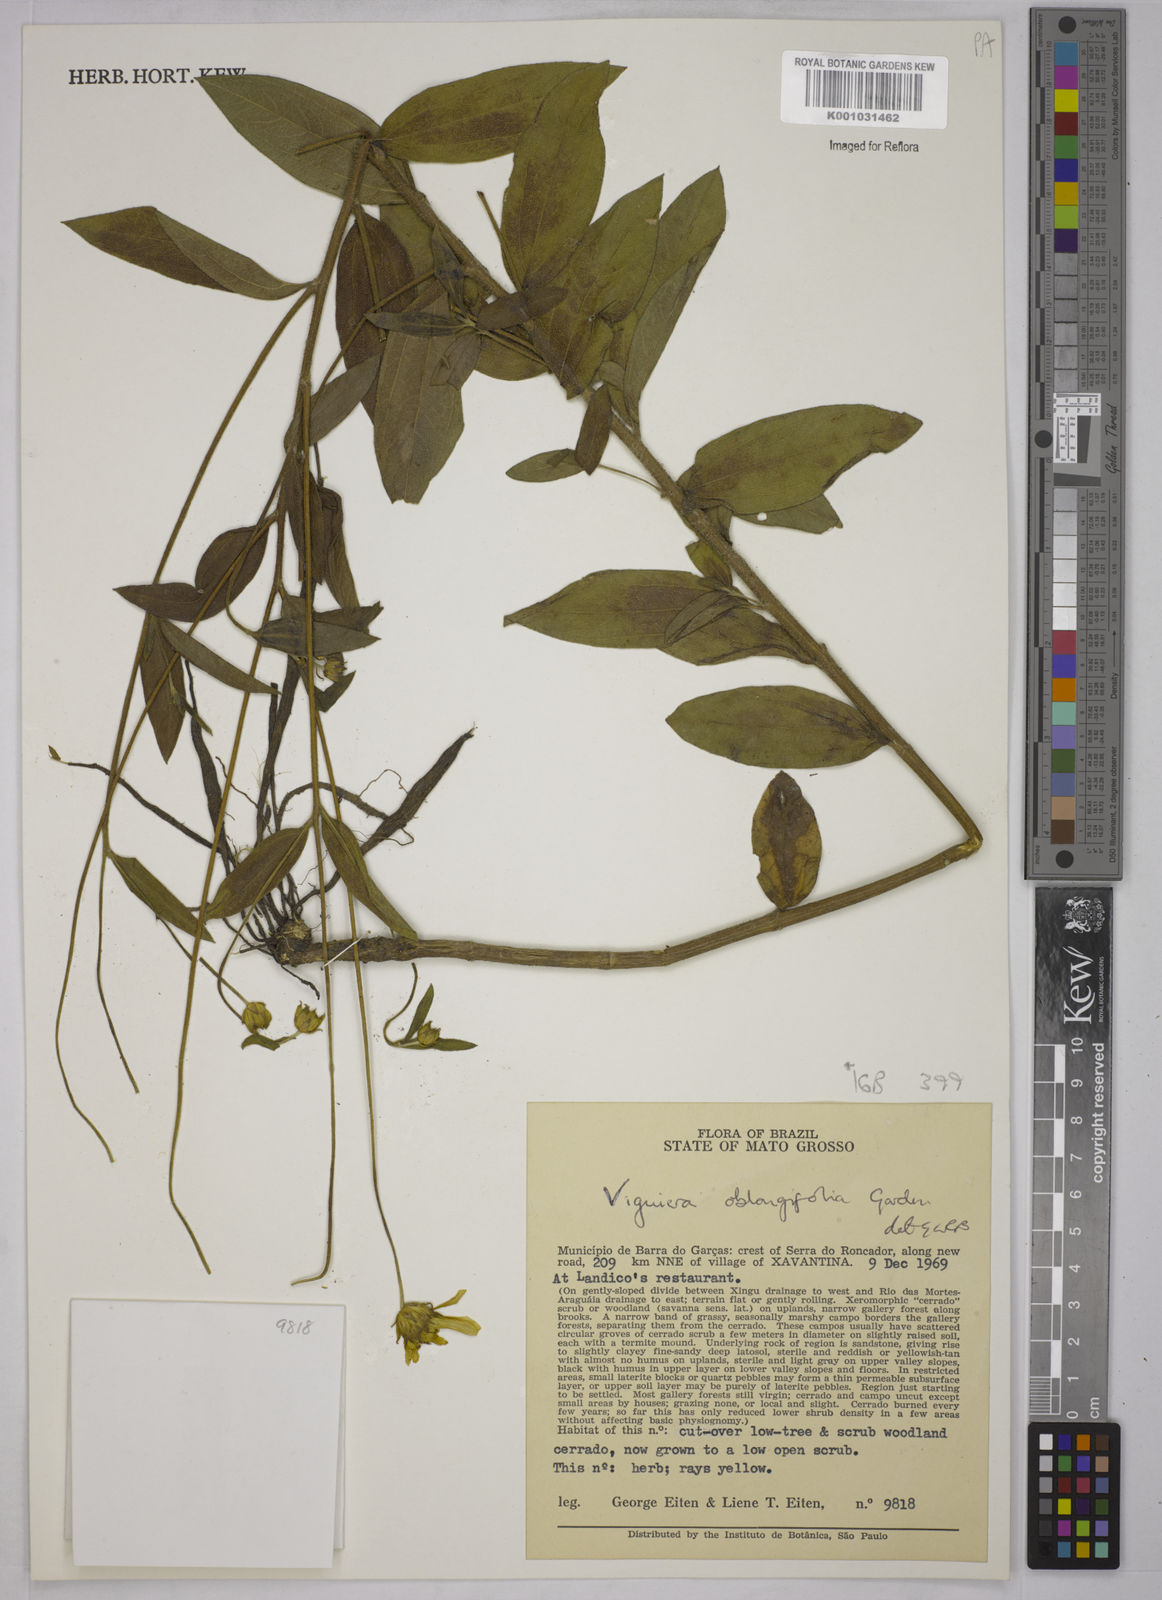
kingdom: Plantae
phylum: Tracheophyta
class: Magnoliopsida
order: Asterales
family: Asteraceae
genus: Aldama
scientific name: Aldama oblongifolia
